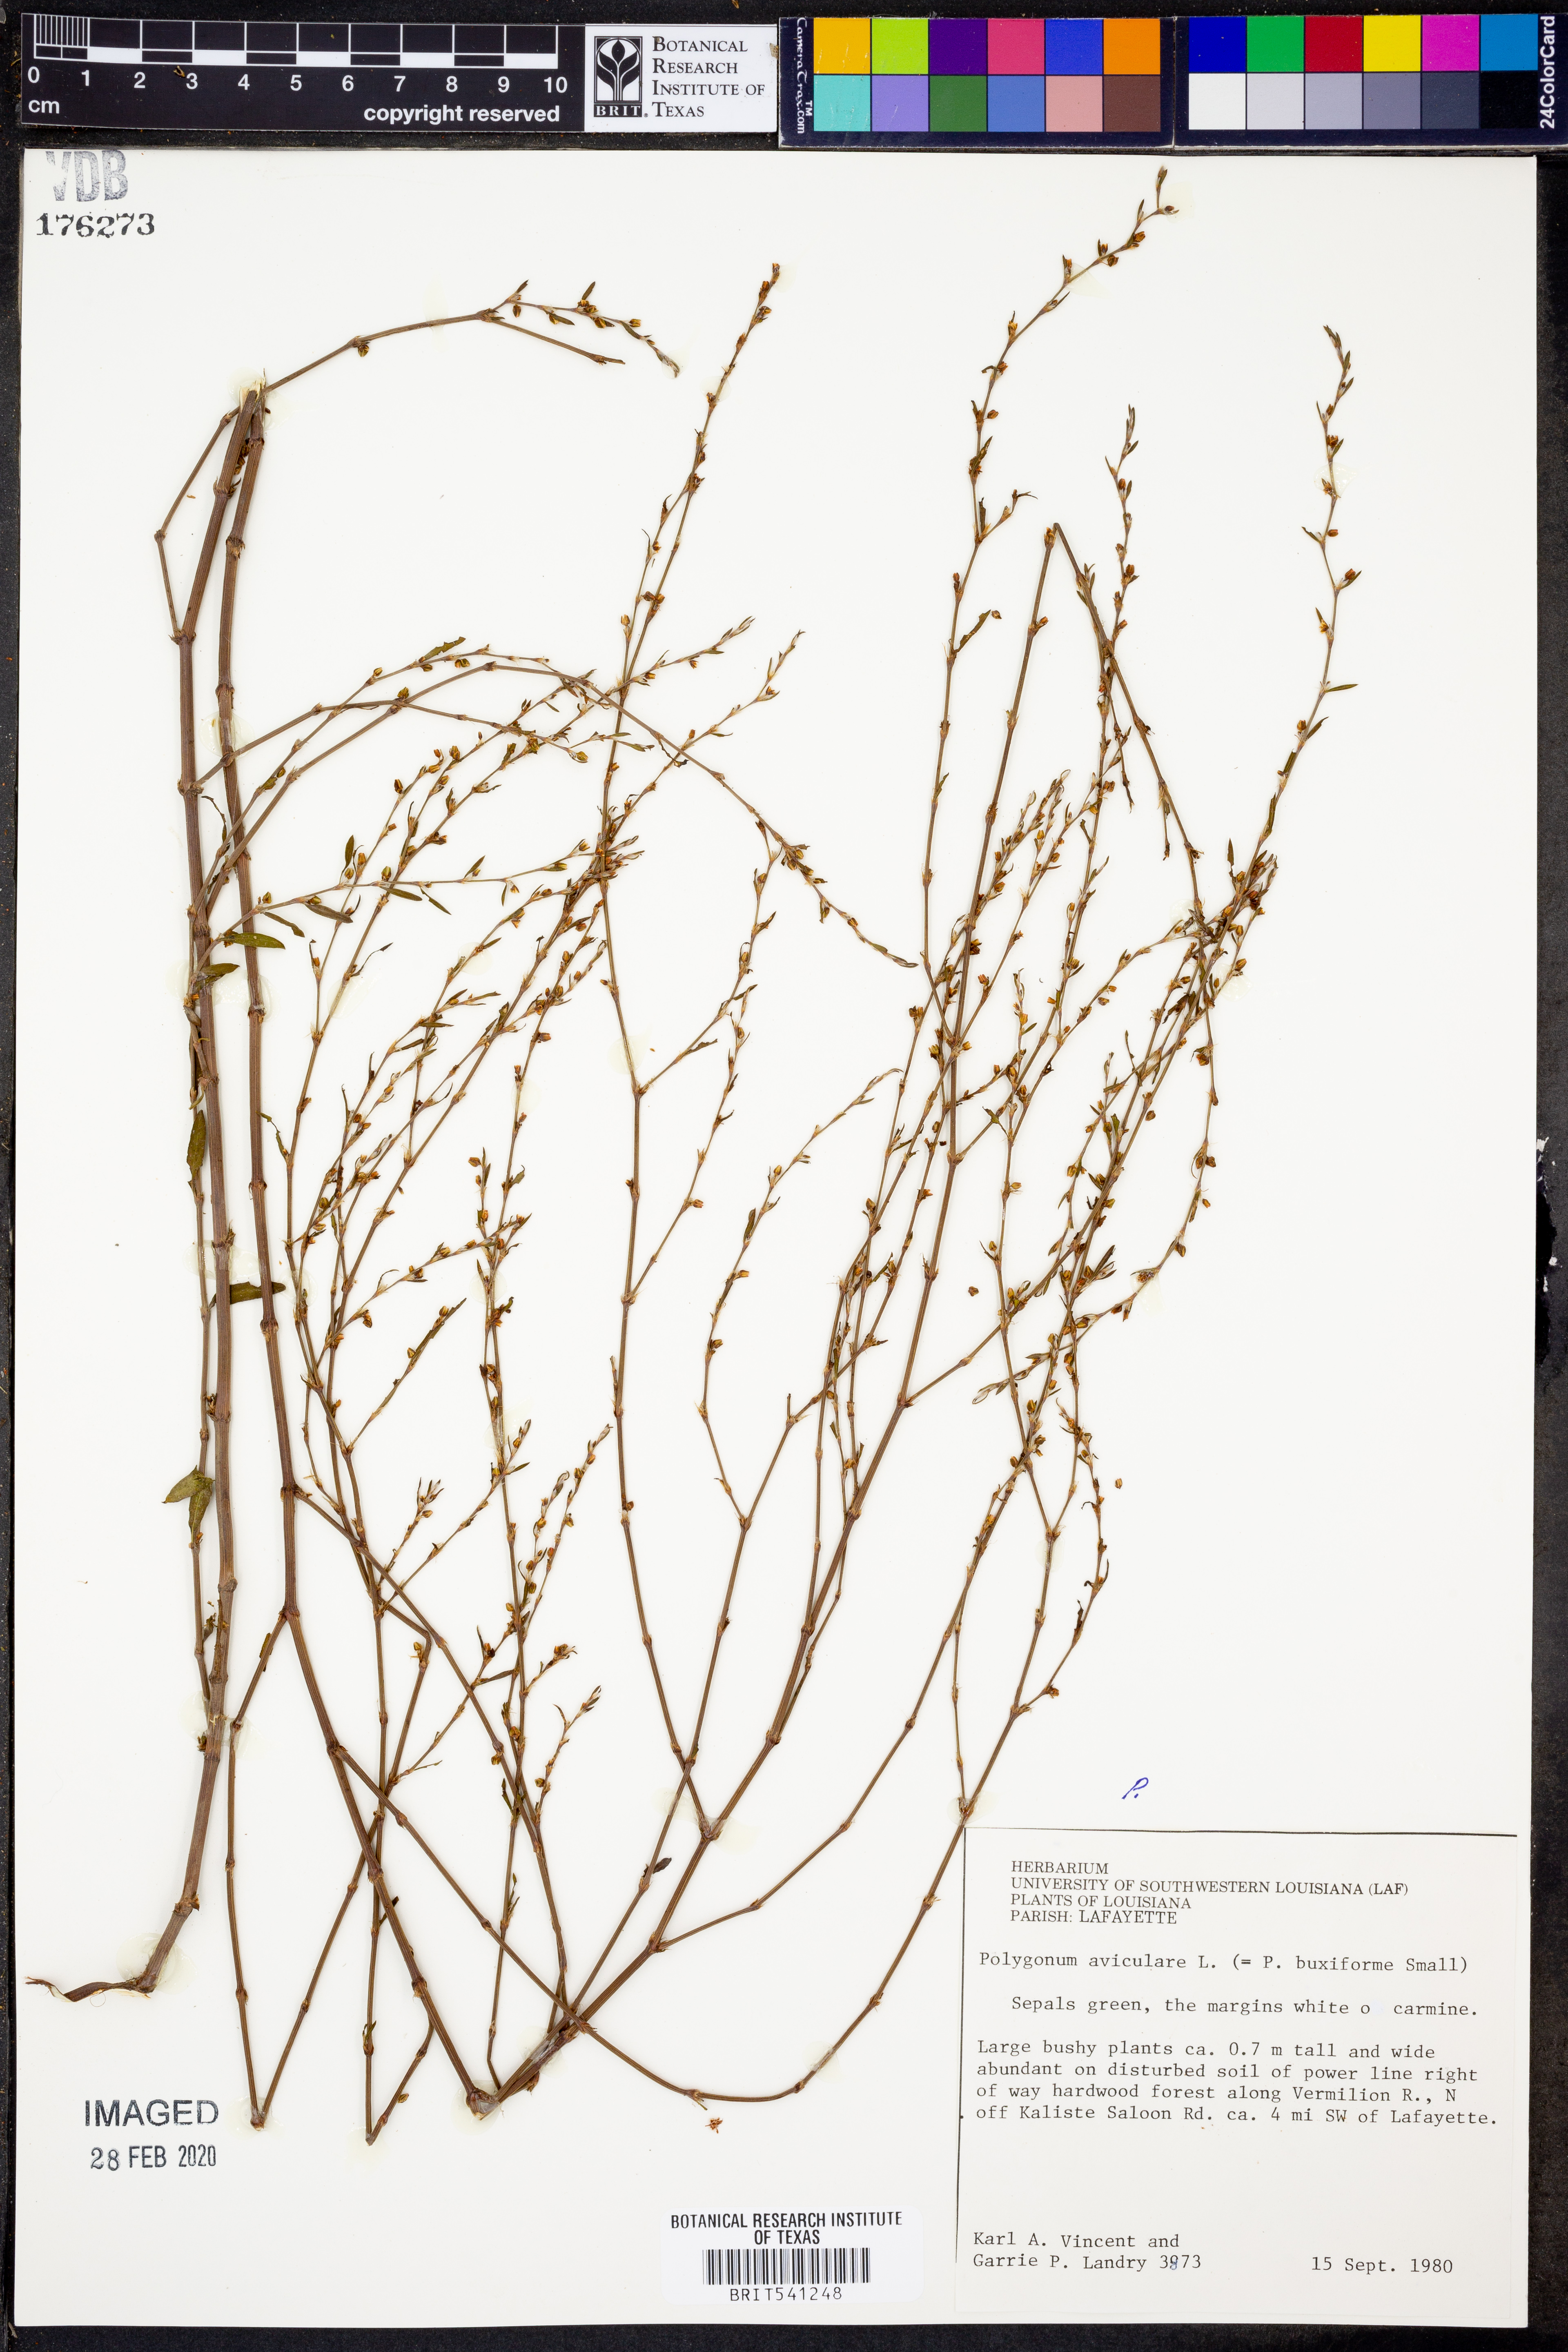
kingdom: Plantae
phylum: Tracheophyta
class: Magnoliopsida
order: Caryophyllales
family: Polygonaceae
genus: Polygonum
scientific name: Polygonum aviculare
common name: Prostrate knotweed
